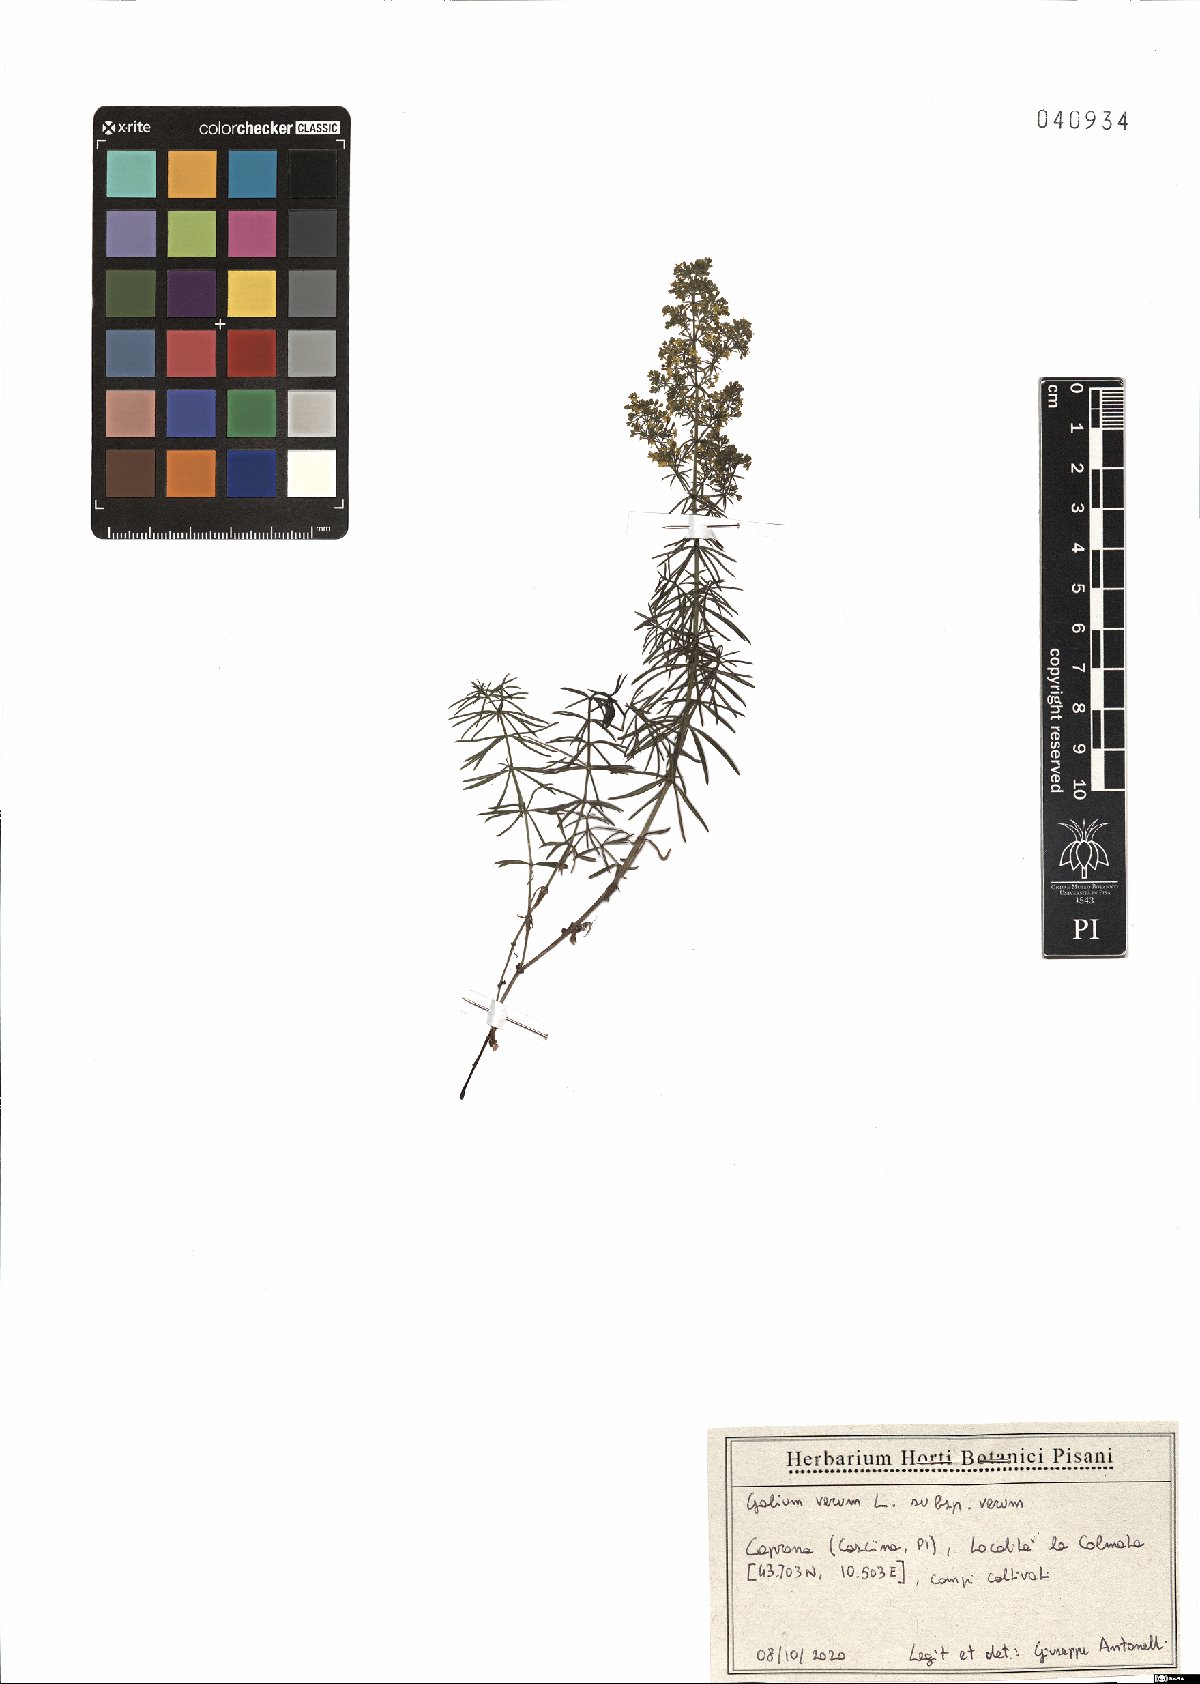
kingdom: Plantae
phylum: Tracheophyta
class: Magnoliopsida
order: Gentianales
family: Rubiaceae
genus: Galium
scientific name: Galium verum
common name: Lady's bedstraw
